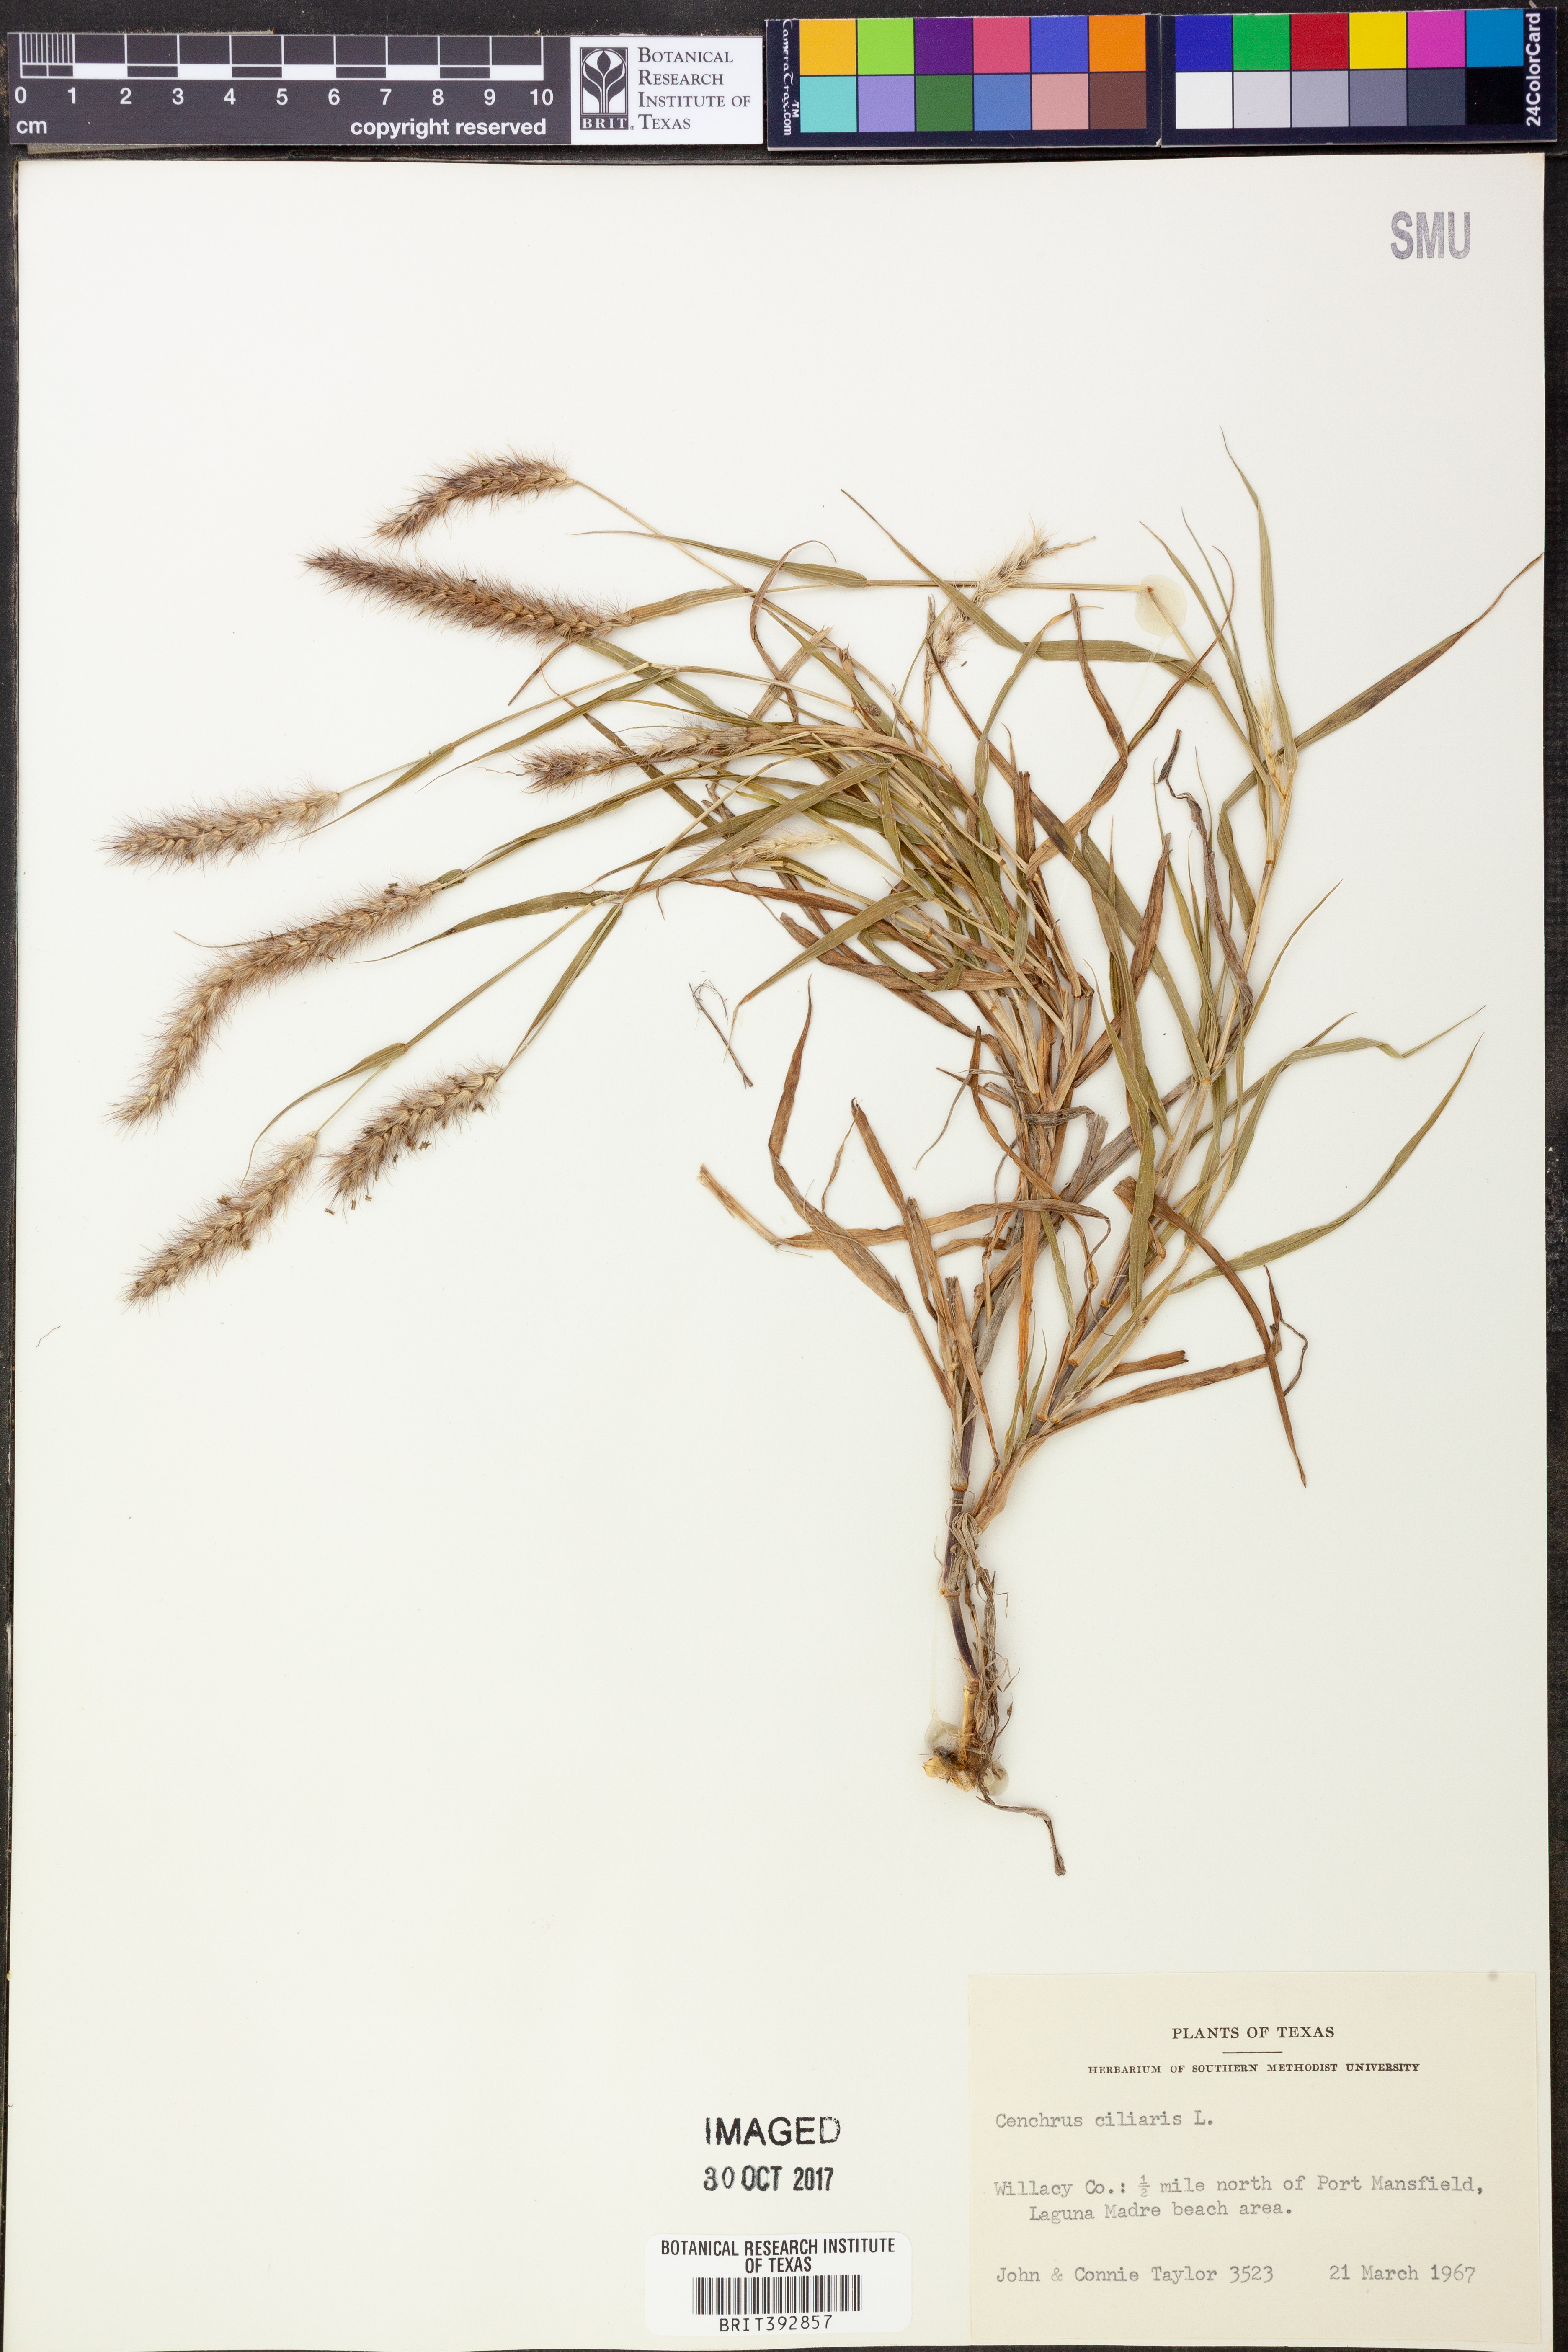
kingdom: Plantae
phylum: Tracheophyta
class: Liliopsida
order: Poales
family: Poaceae
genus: Cenchrus
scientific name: Cenchrus ciliaris
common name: Buffelgrass
